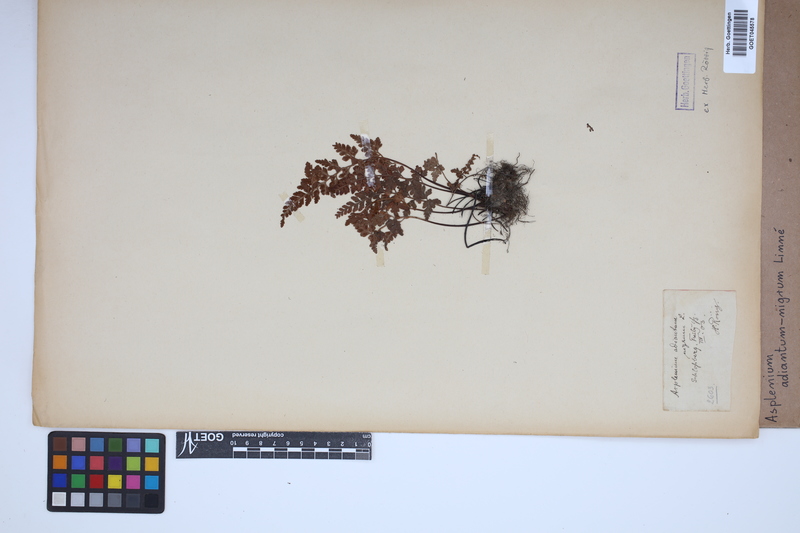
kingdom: Plantae
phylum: Tracheophyta
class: Polypodiopsida
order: Polypodiales
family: Aspleniaceae
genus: Asplenium
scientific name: Asplenium adiantum-nigrum
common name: Black spleenwort
